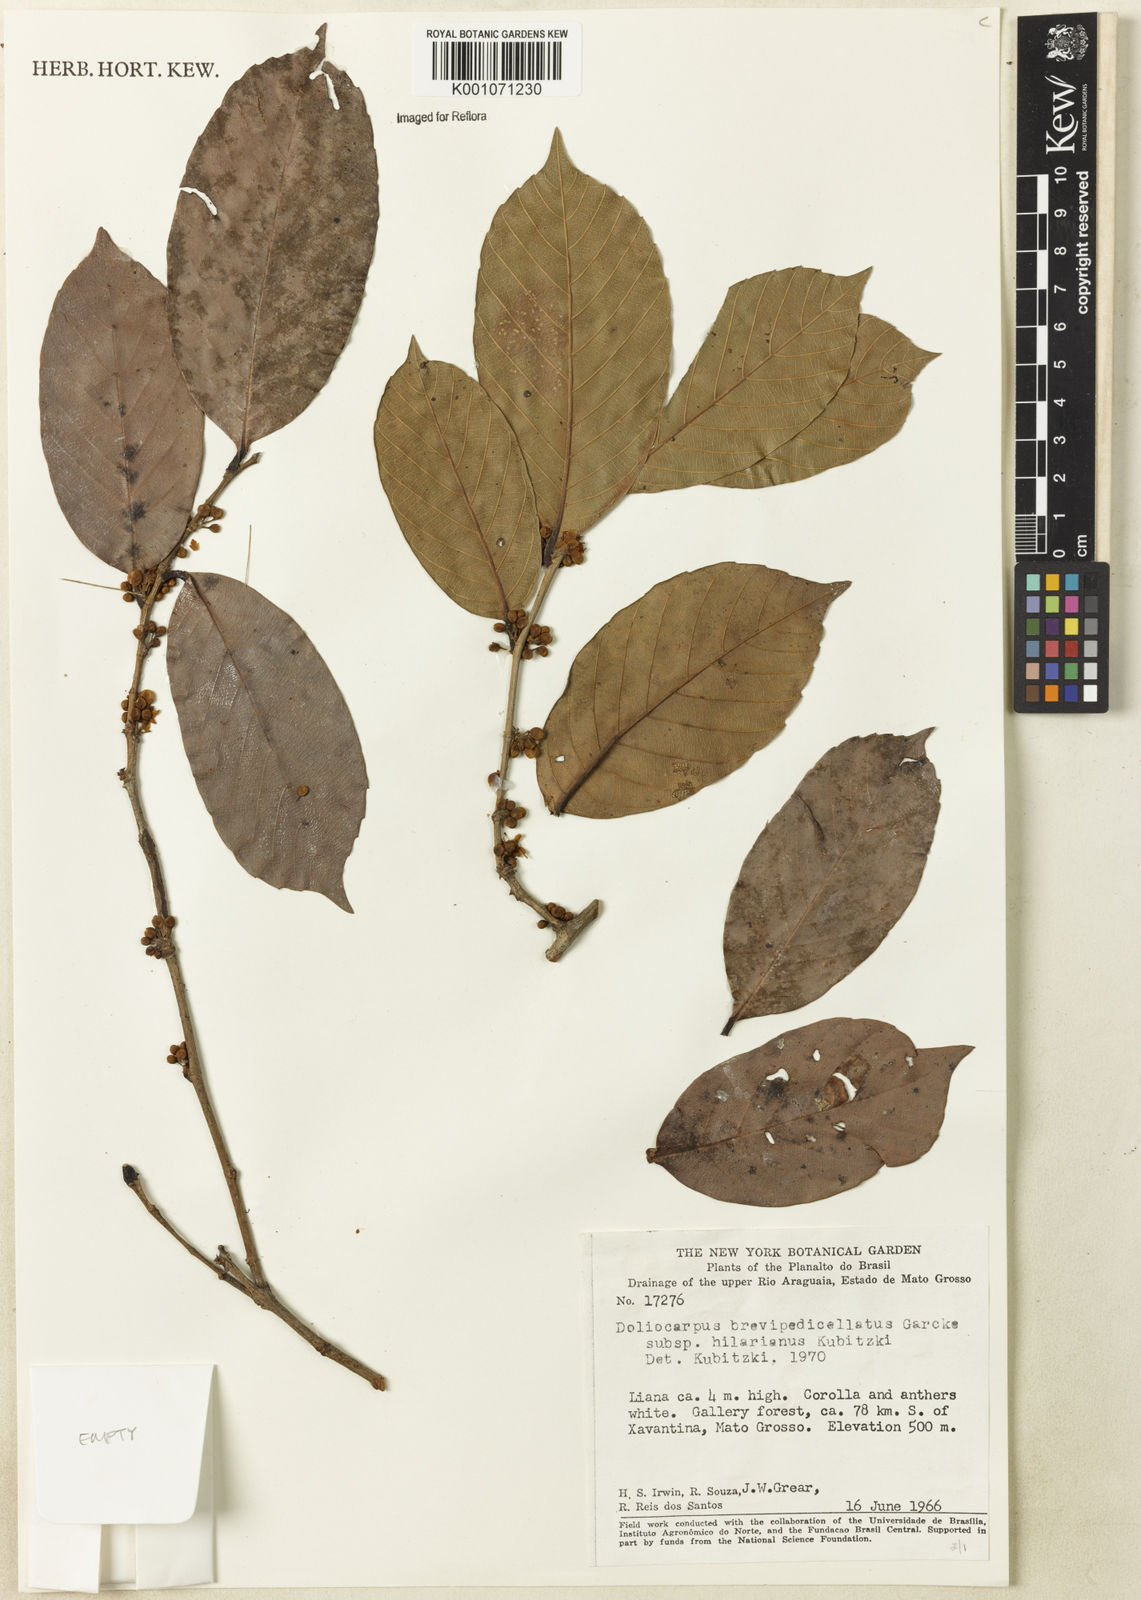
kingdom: Plantae
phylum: Tracheophyta
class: Magnoliopsida
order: Dilleniales
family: Dilleniaceae
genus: Doliocarpus
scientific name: Doliocarpus hilarianus
